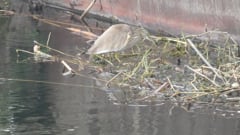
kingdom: Animalia
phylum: Chordata
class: Aves
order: Pelecaniformes
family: Ardeidae
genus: Ardeola
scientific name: Ardeola ralloides
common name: Squacco heron
